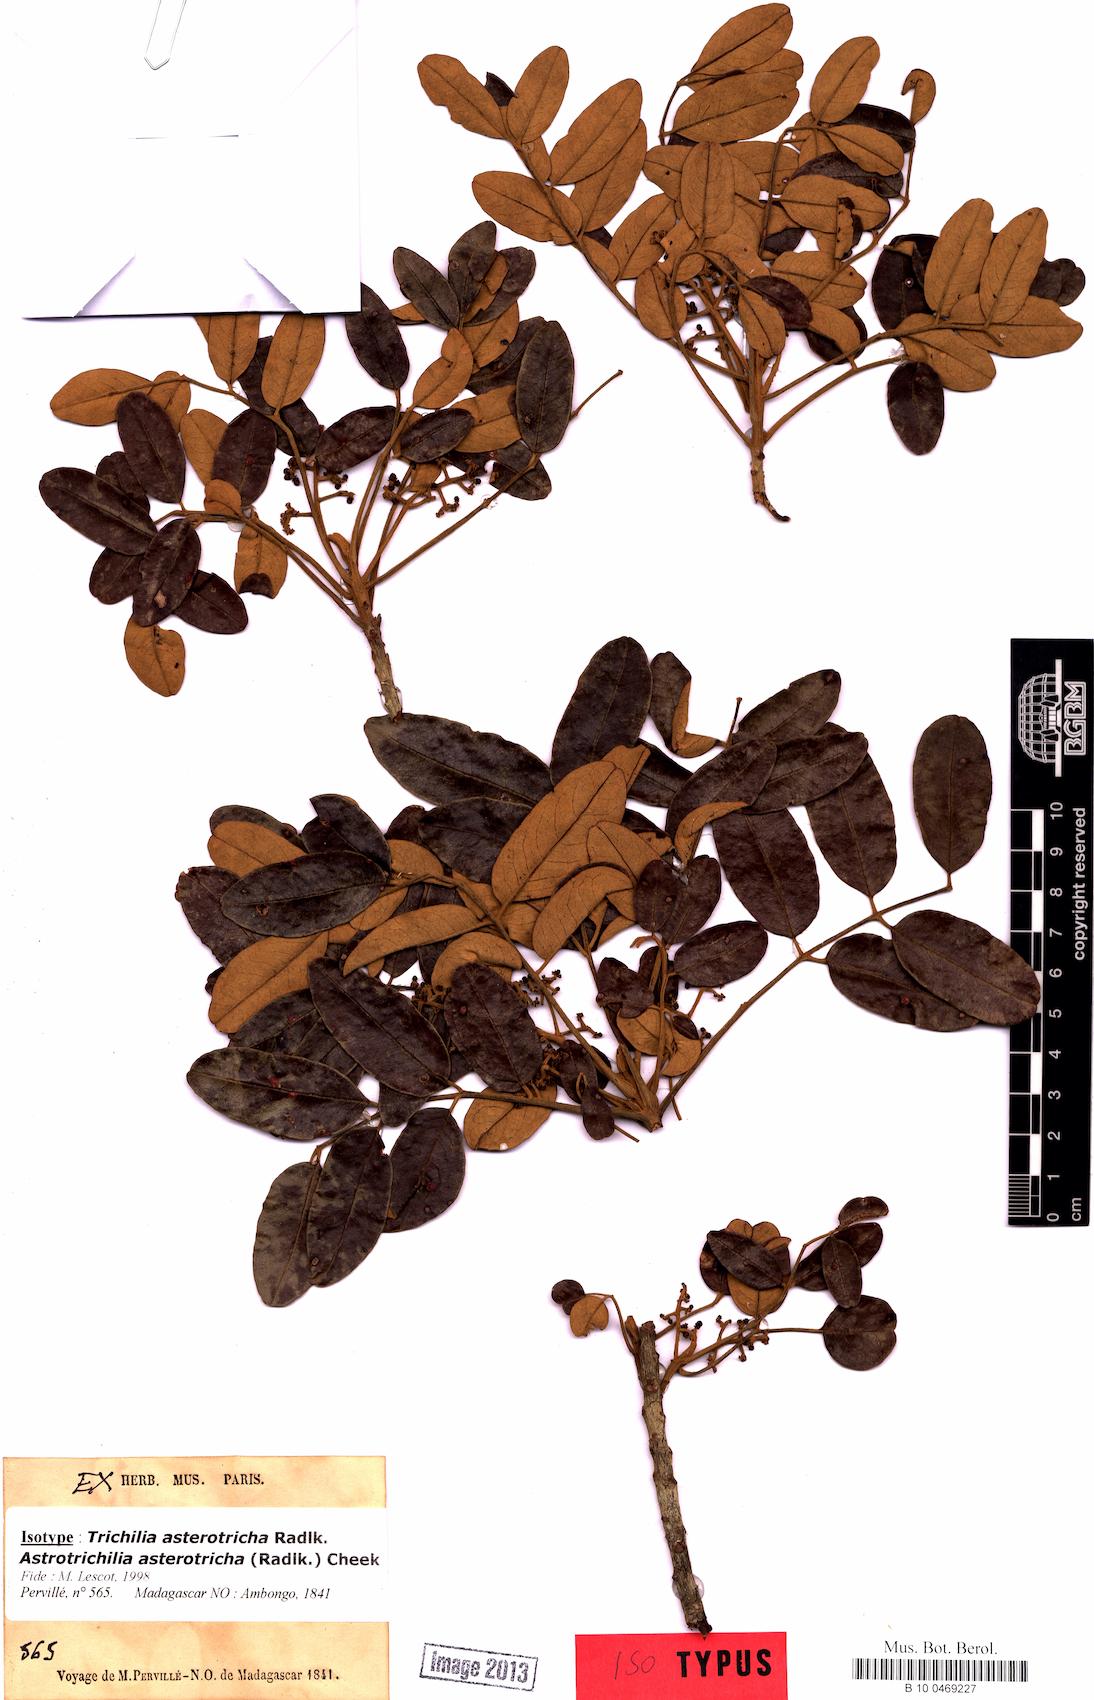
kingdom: Plantae
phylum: Tracheophyta
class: Magnoliopsida
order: Sapindales
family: Meliaceae
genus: Astrotrichilia
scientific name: Astrotrichilia asterotricha
